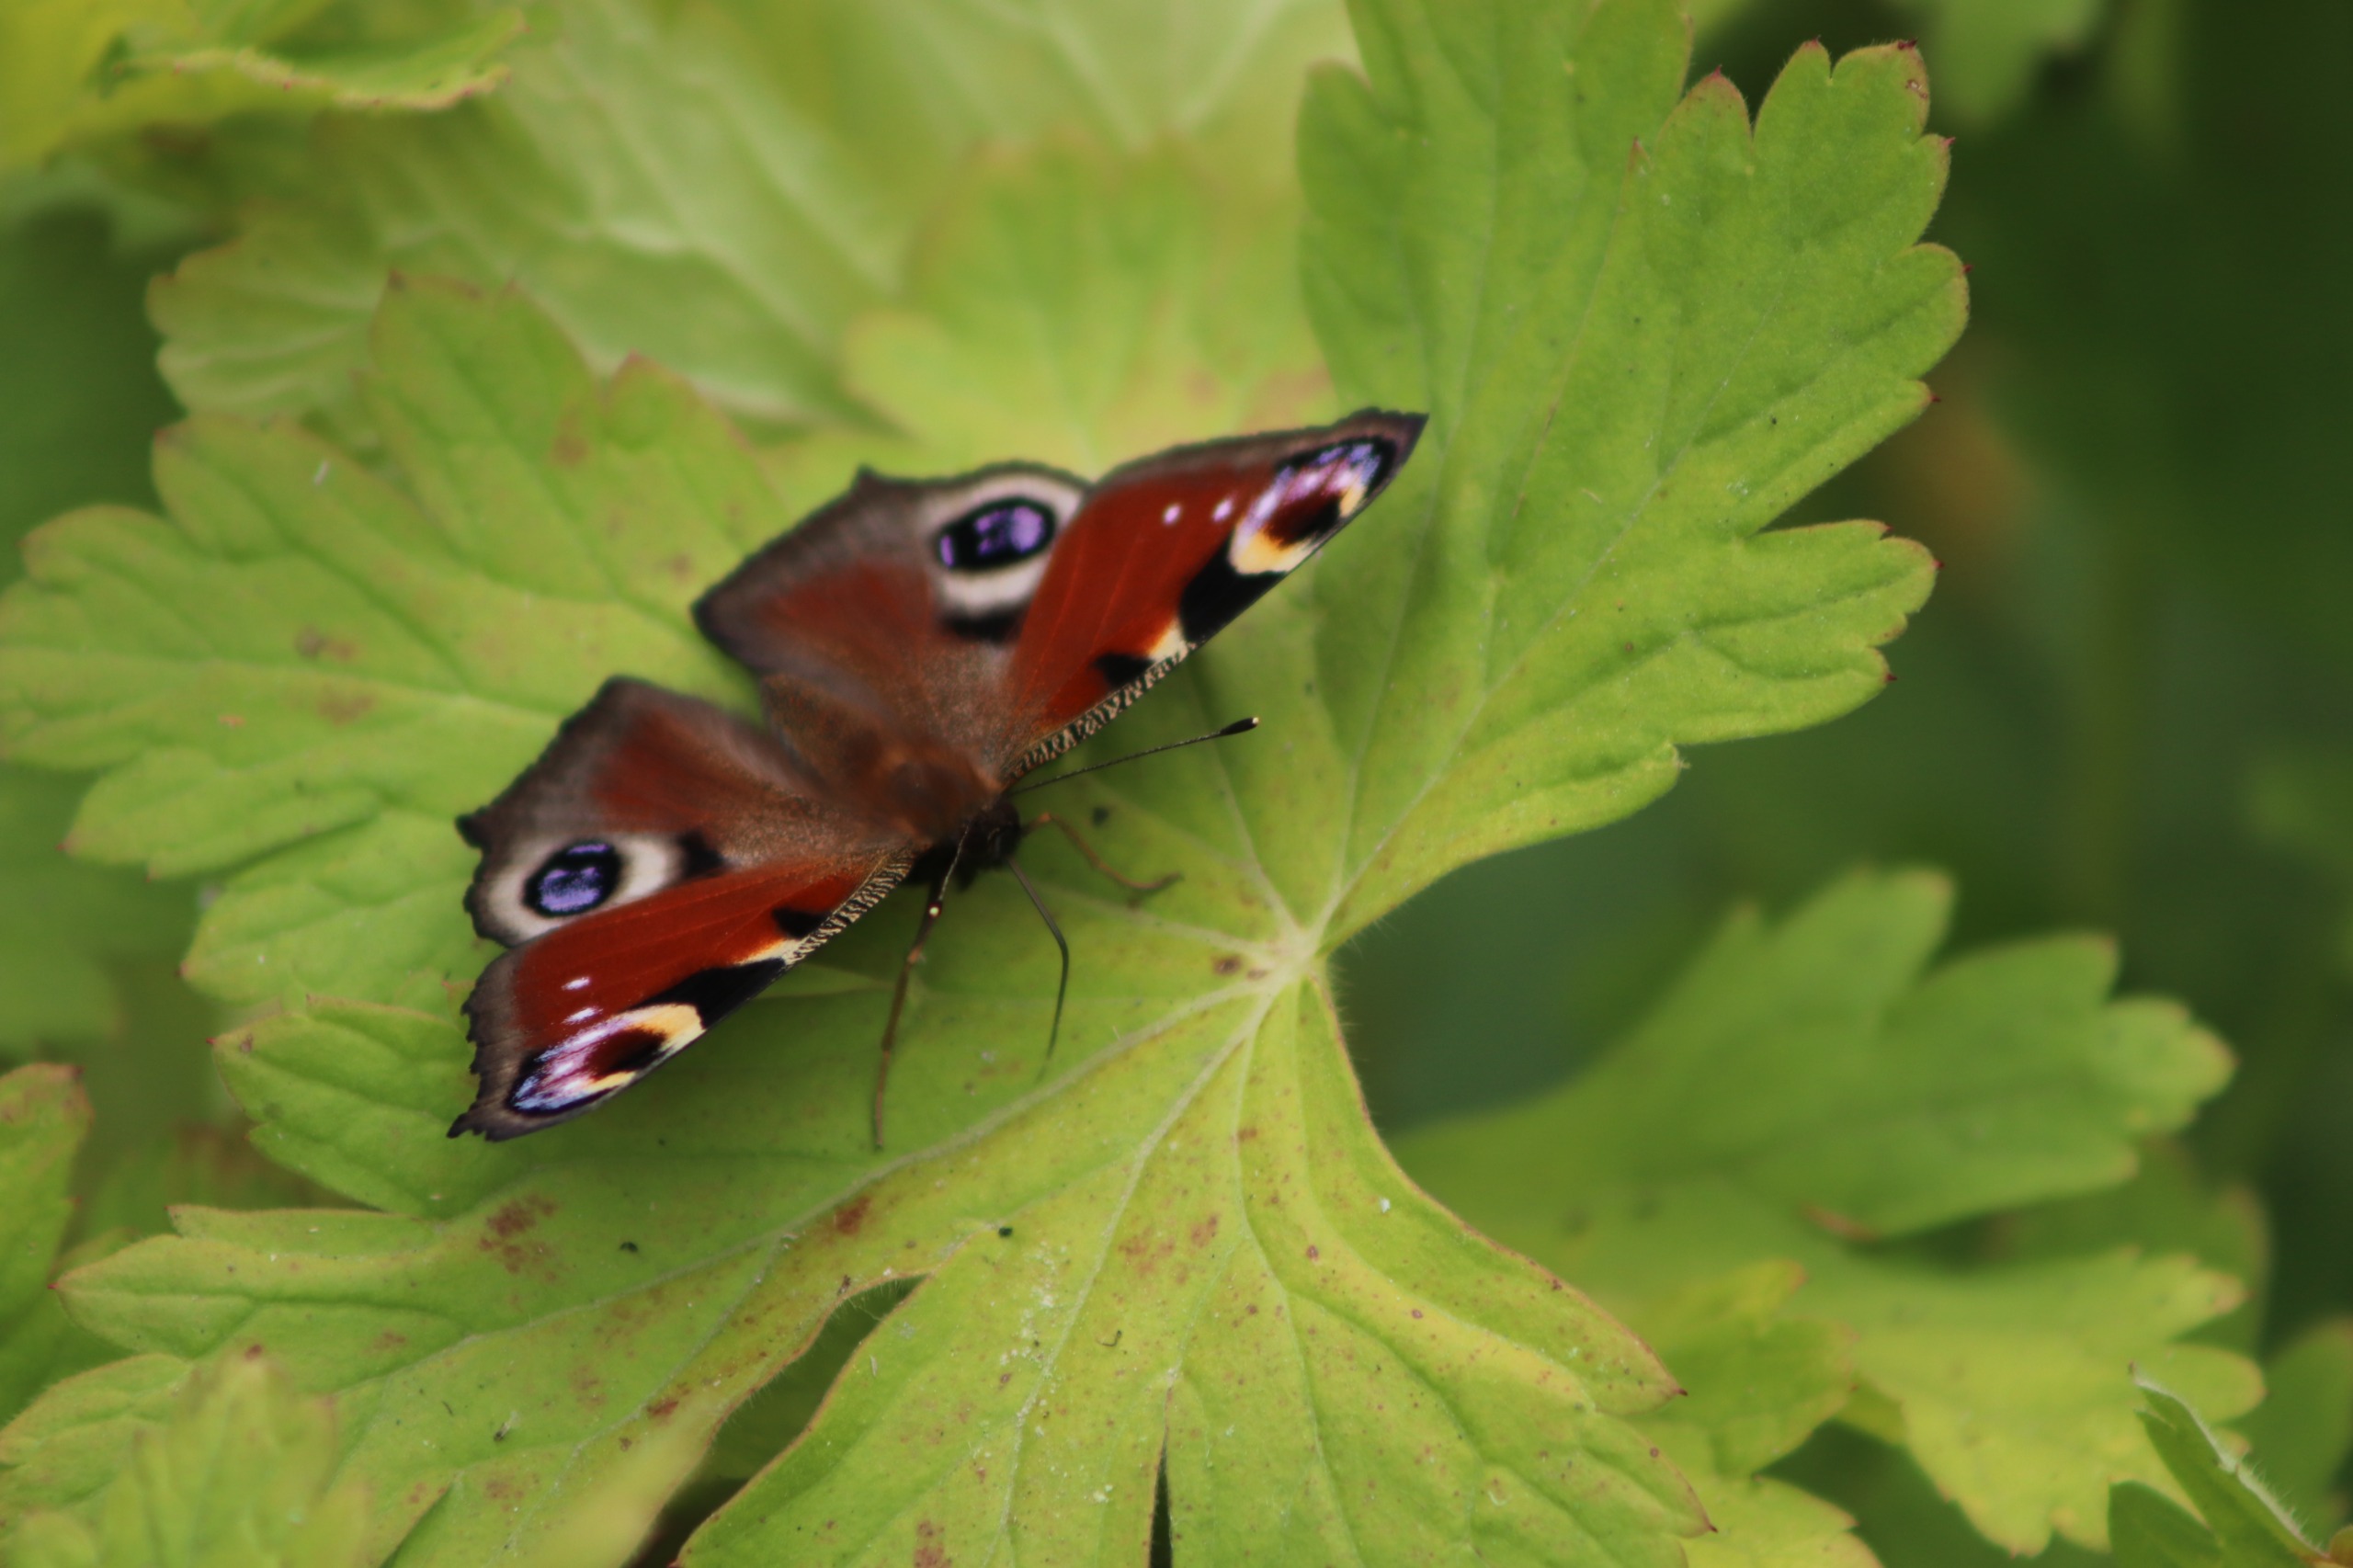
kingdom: Animalia
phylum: Arthropoda
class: Insecta
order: Lepidoptera
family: Nymphalidae
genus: Aglais
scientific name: Aglais io
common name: Dagpåfugleøje
